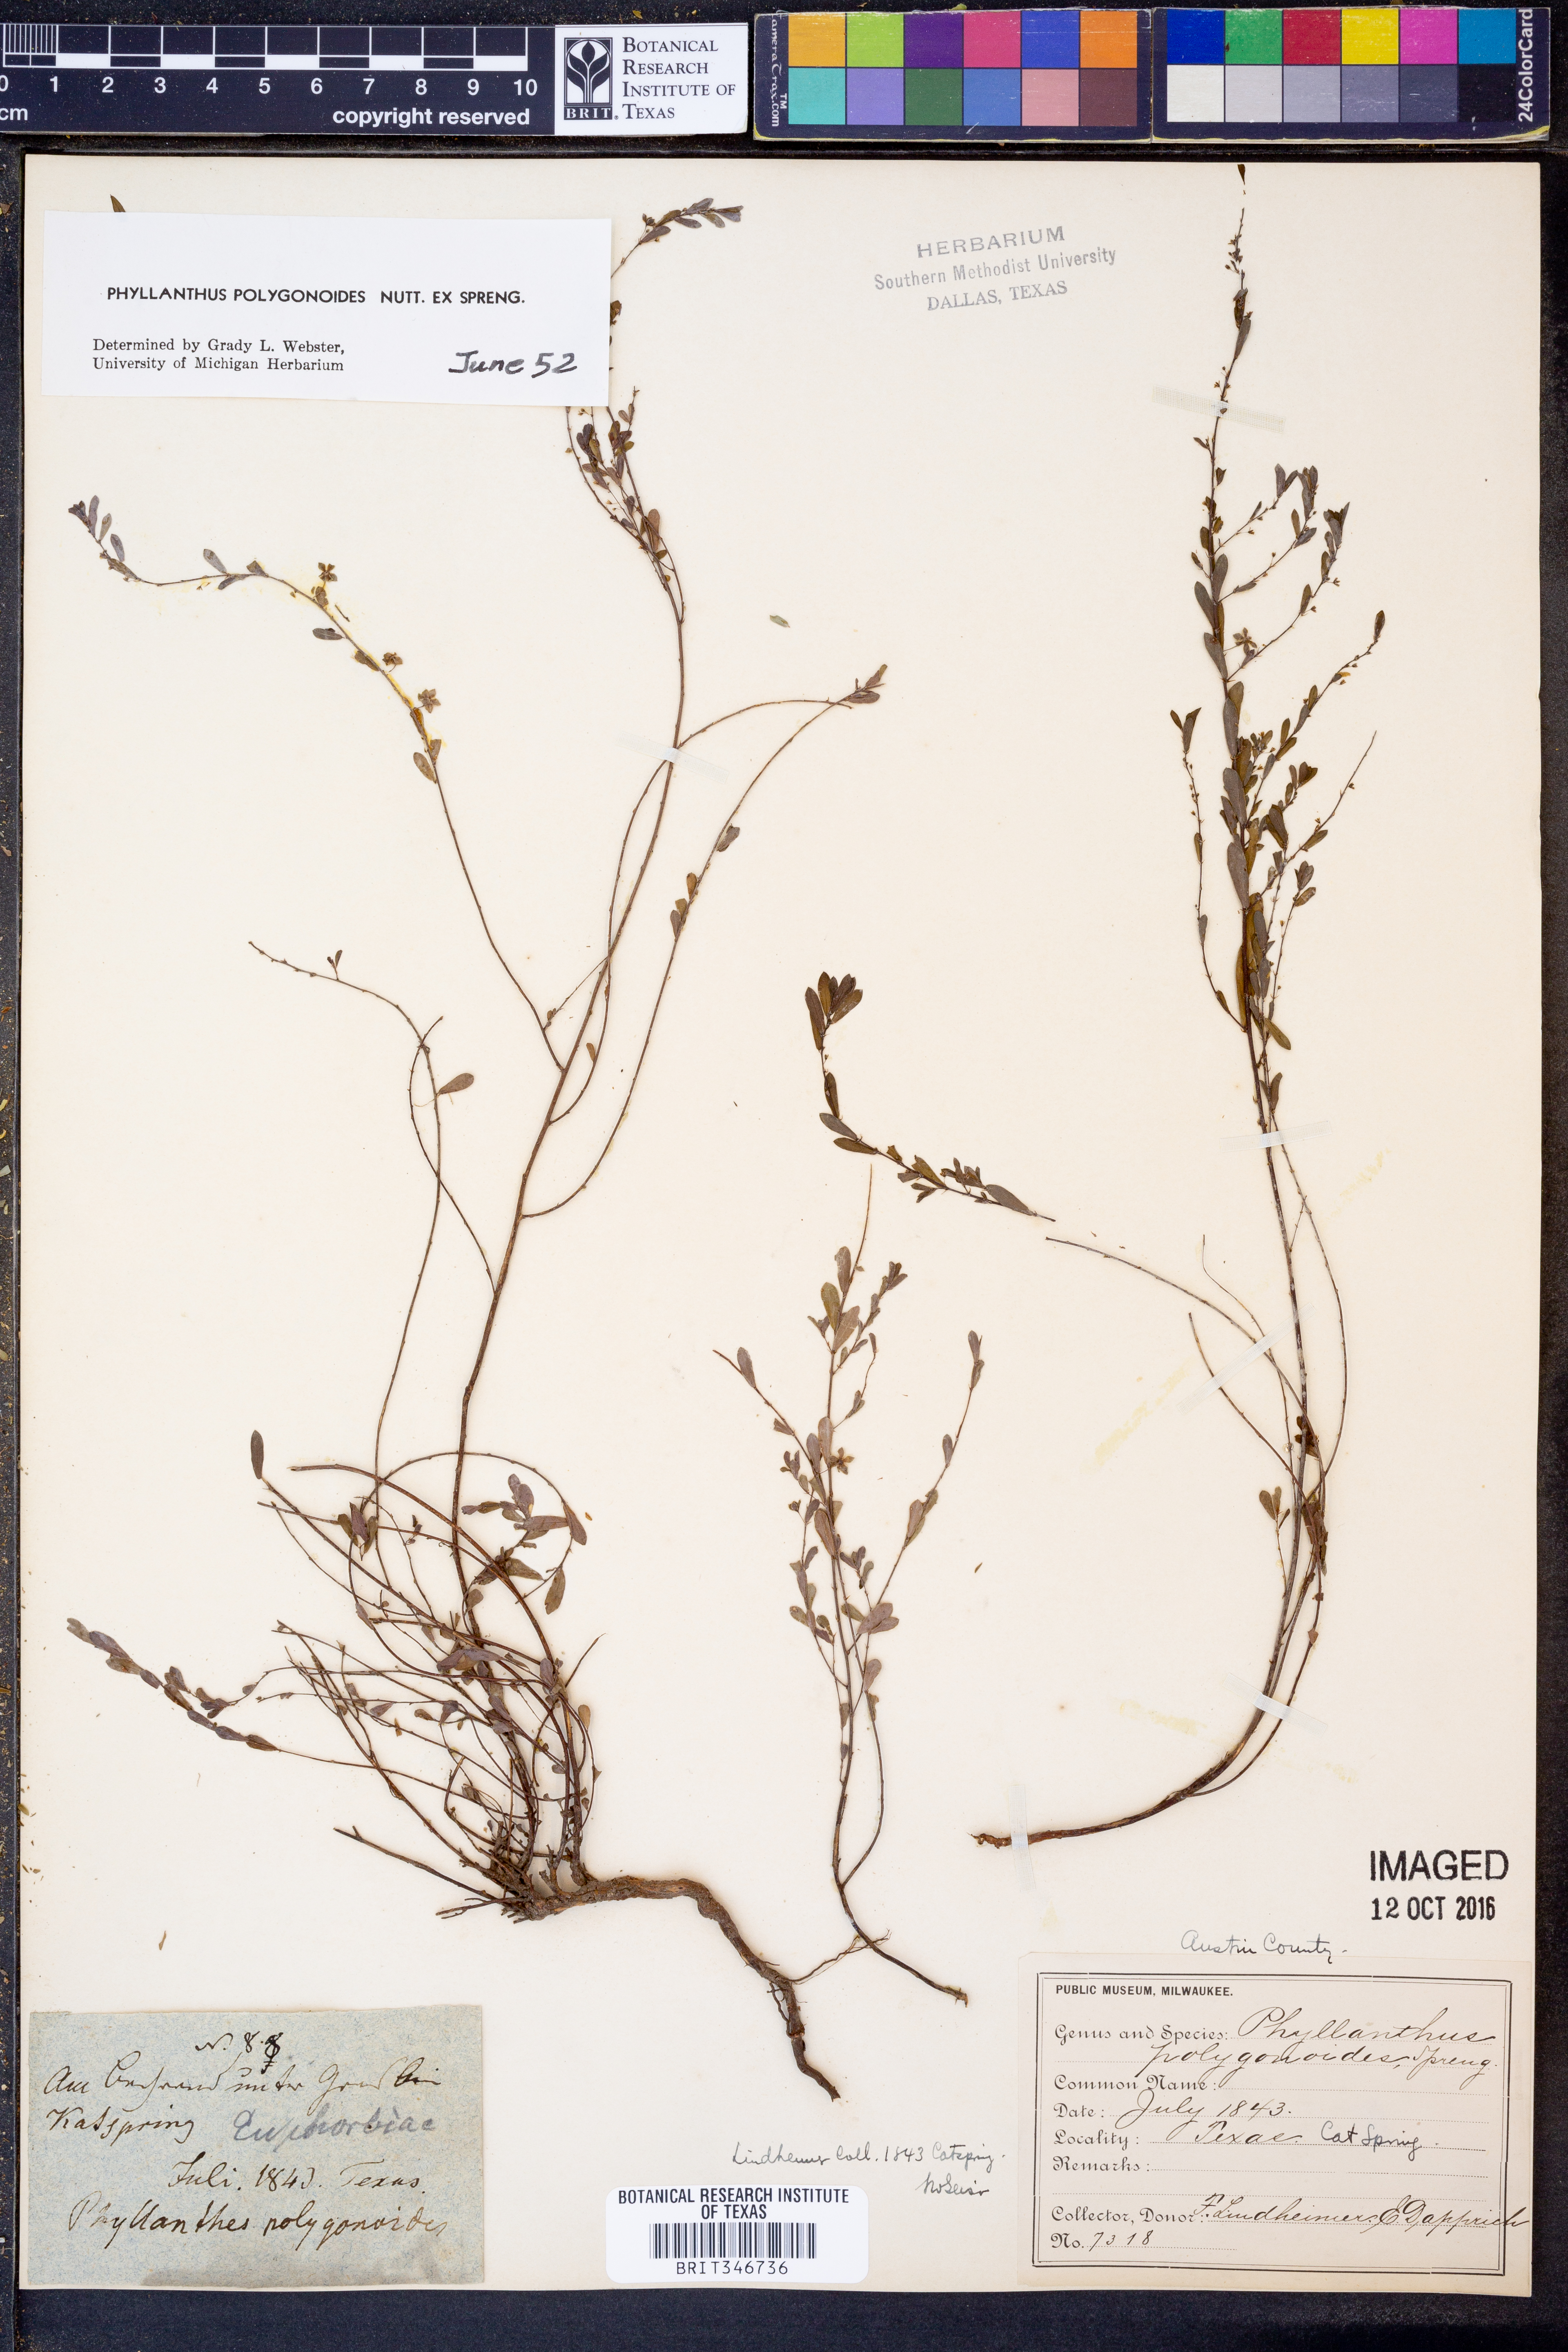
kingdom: Plantae
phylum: Tracheophyta
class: Magnoliopsida
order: Malpighiales
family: Phyllanthaceae
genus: Phyllanthus
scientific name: Phyllanthus polygonoides
